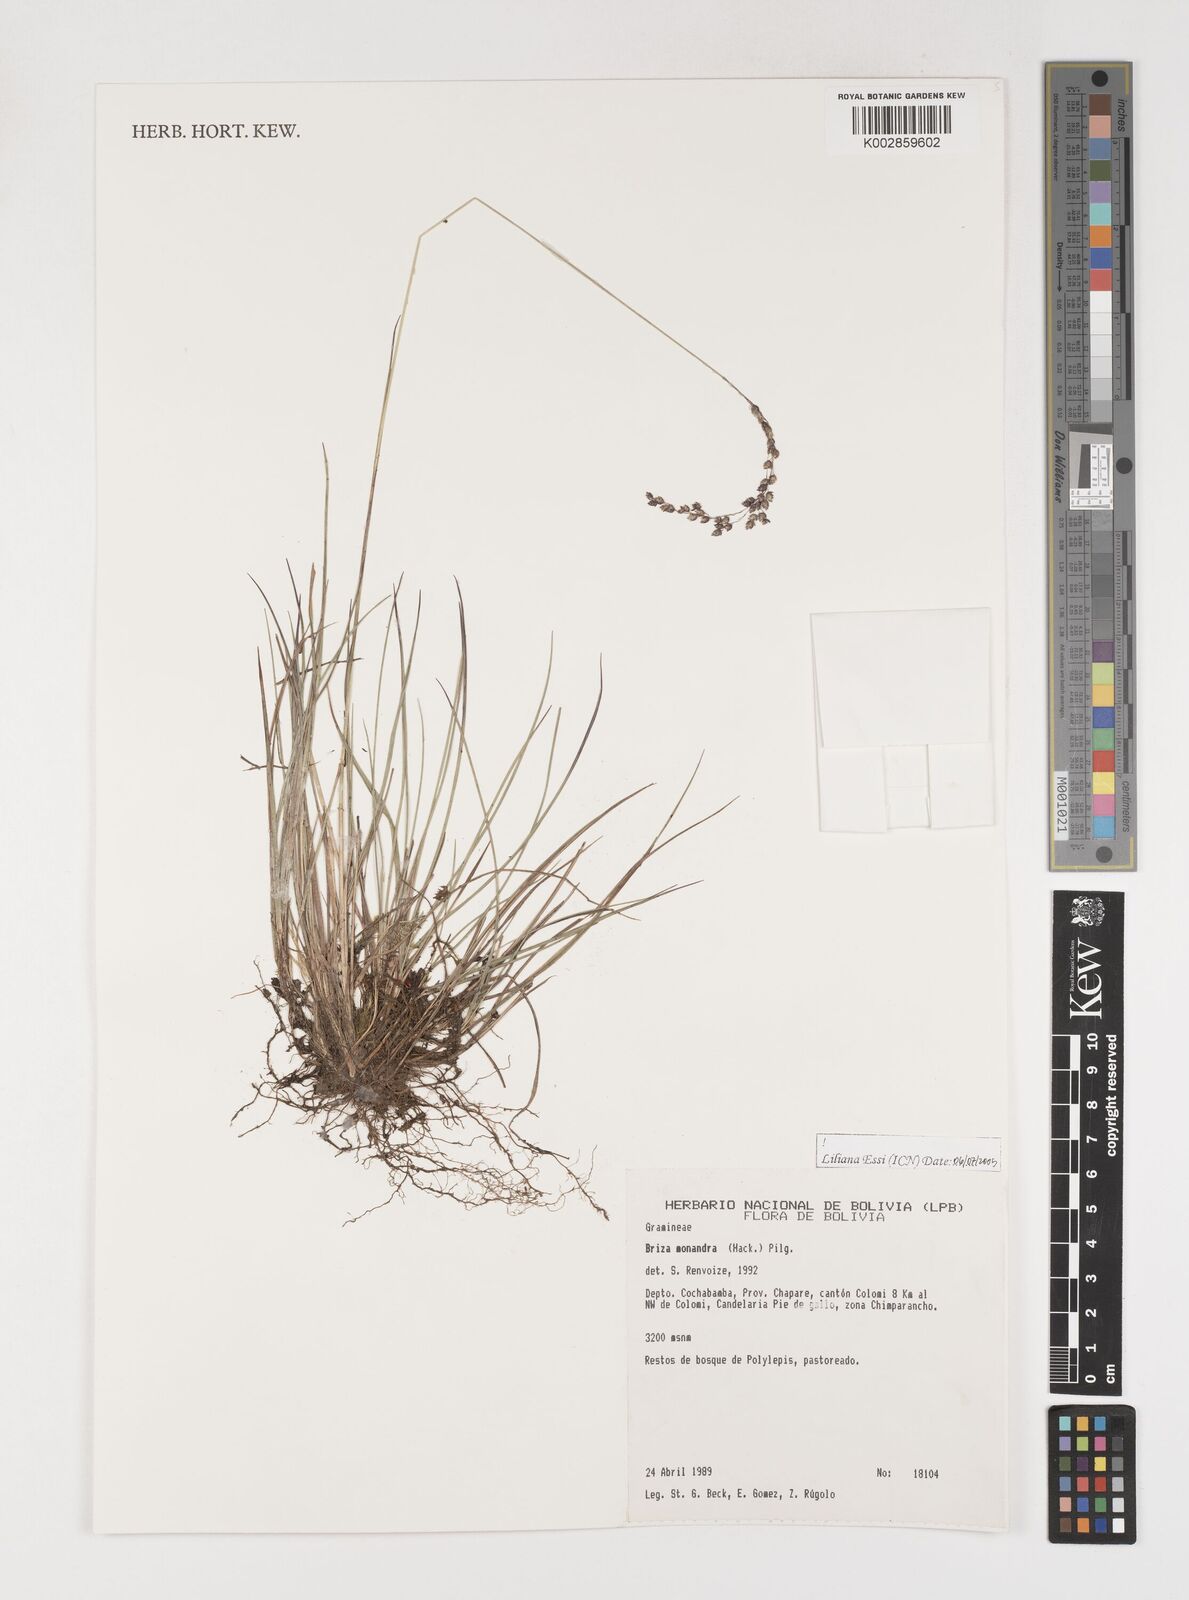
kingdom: Plantae
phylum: Tracheophyta
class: Liliopsida
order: Poales
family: Poaceae
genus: Poidium
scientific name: Poidium monandrum
